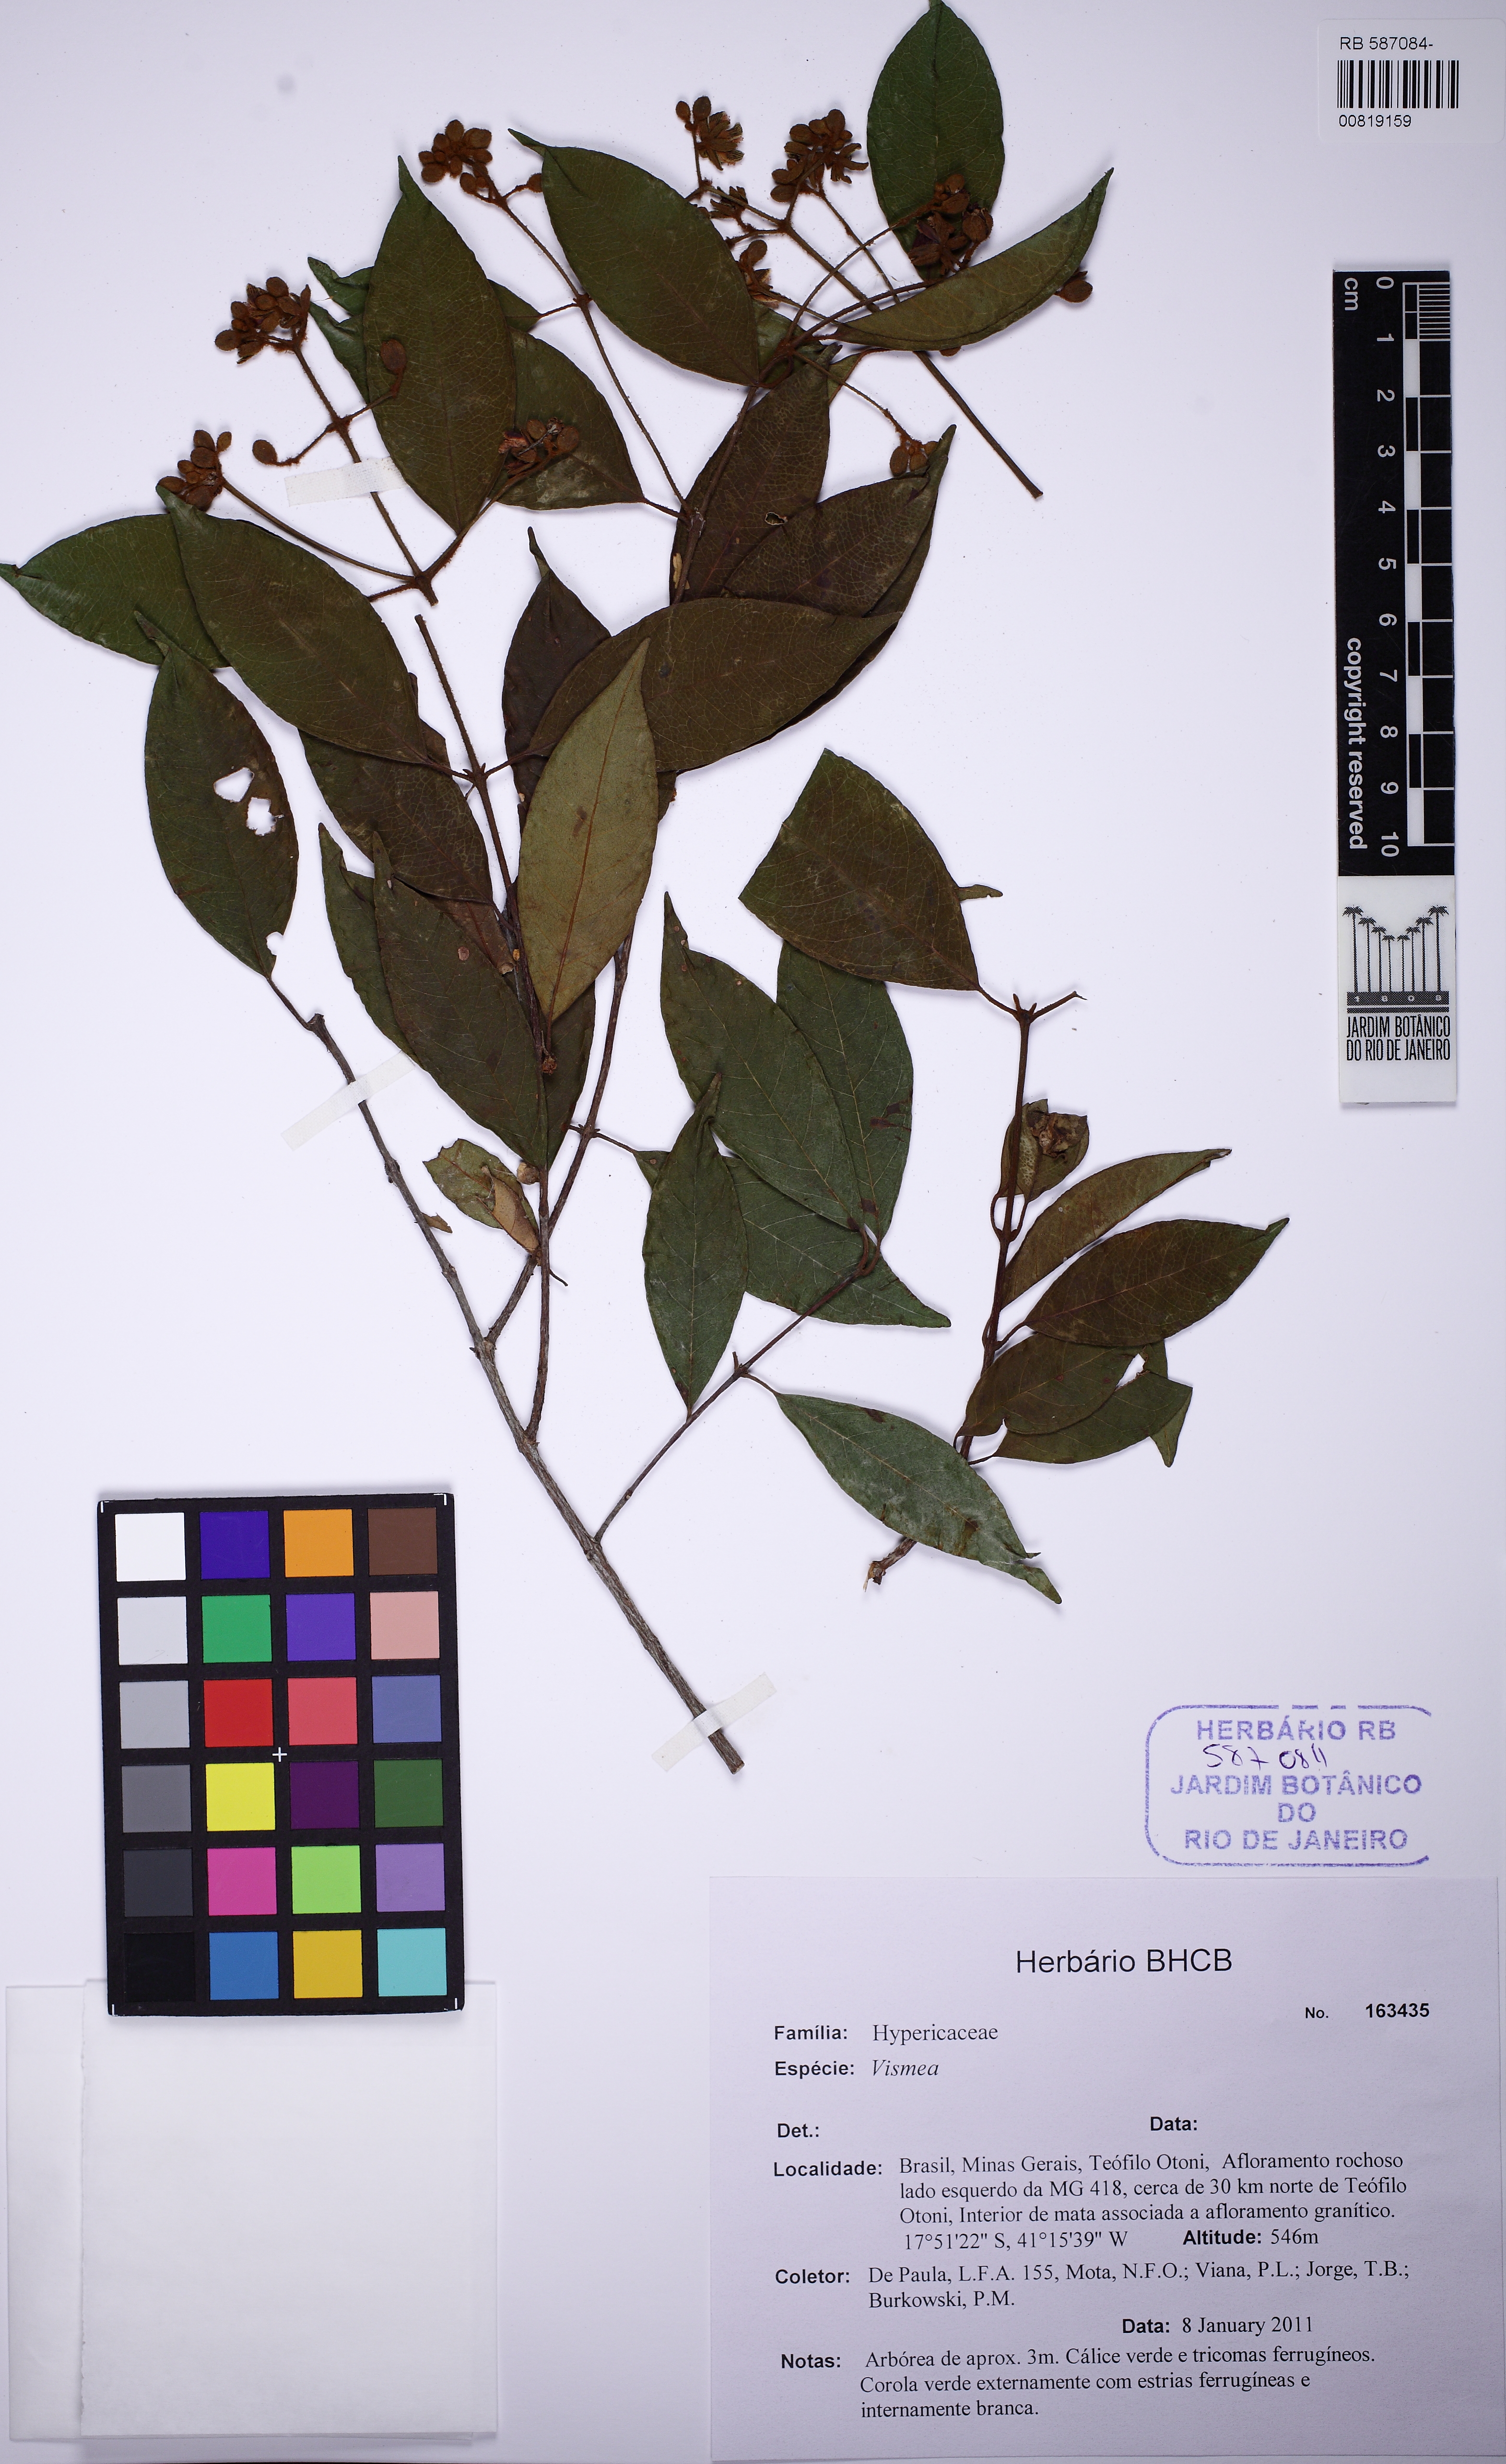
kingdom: Plantae
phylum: Tracheophyta
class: Magnoliopsida
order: Malpighiales
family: Hypericaceae
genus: Vismia
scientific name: Vismia pentagyna
